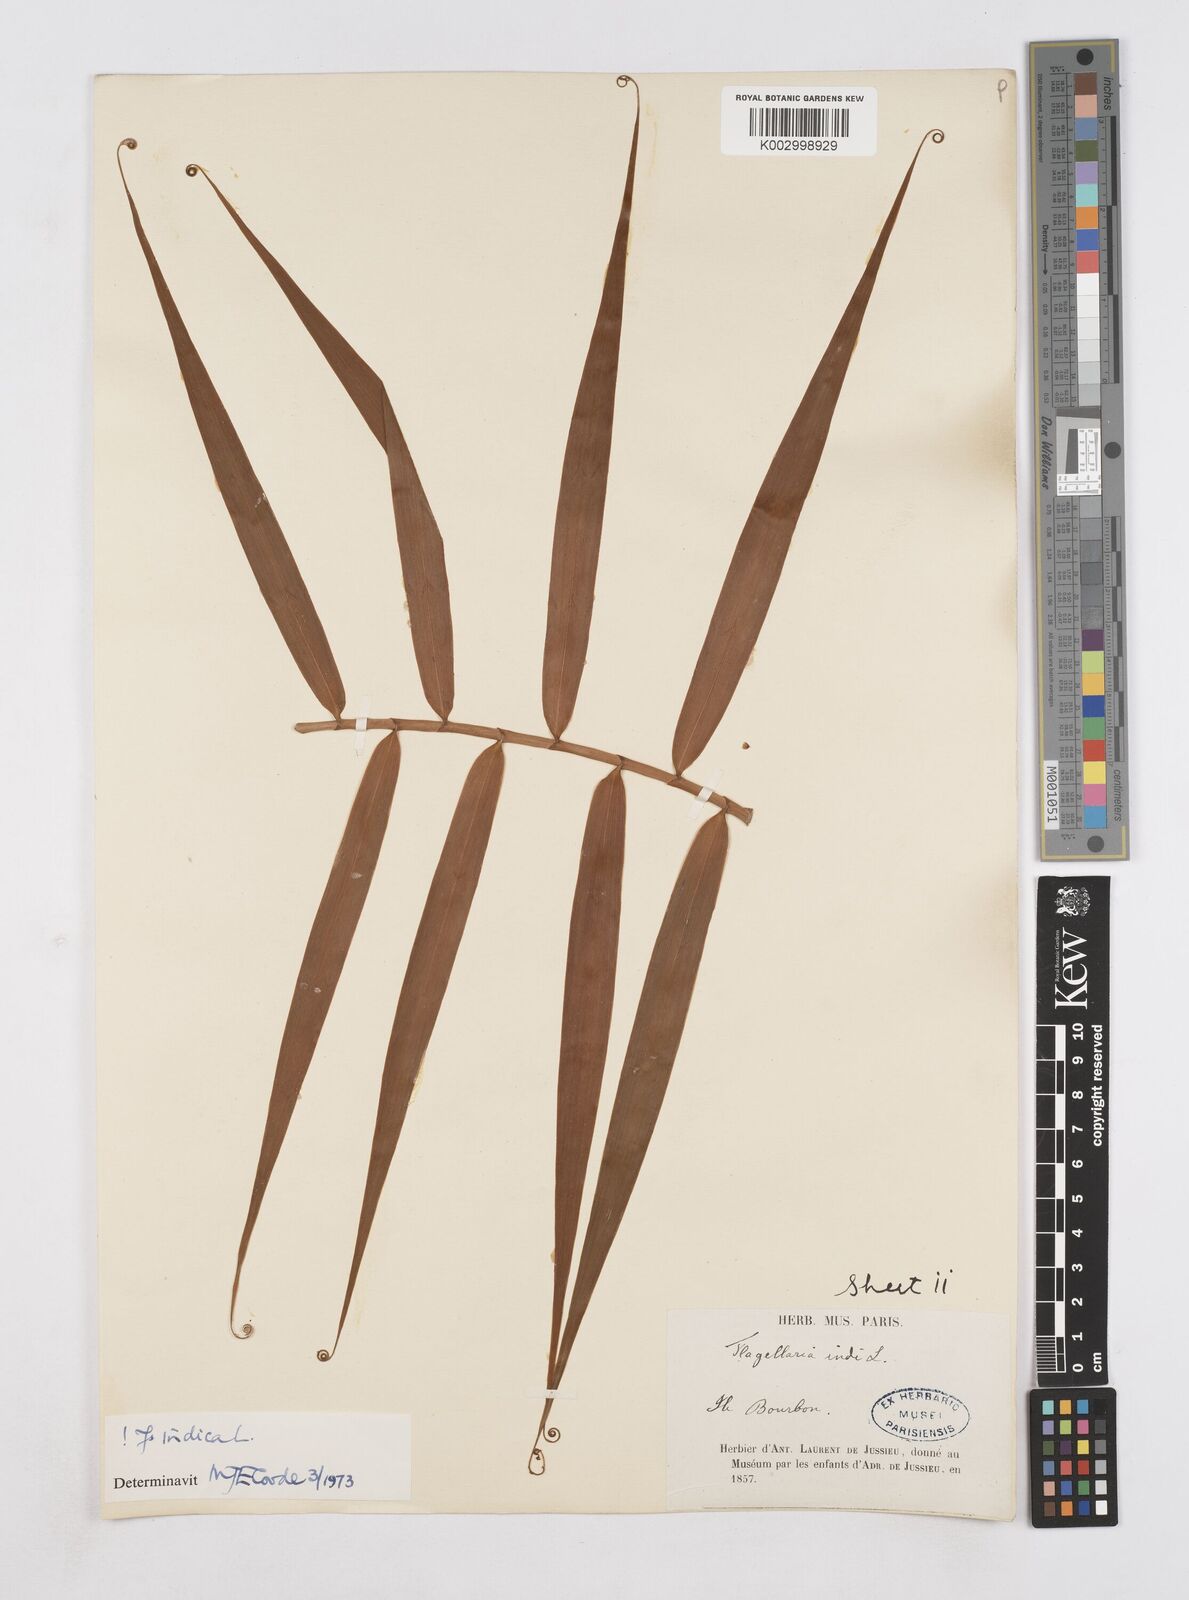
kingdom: Plantae
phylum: Tracheophyta
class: Liliopsida
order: Poales
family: Flagellariaceae
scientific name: Flagellariaceae
